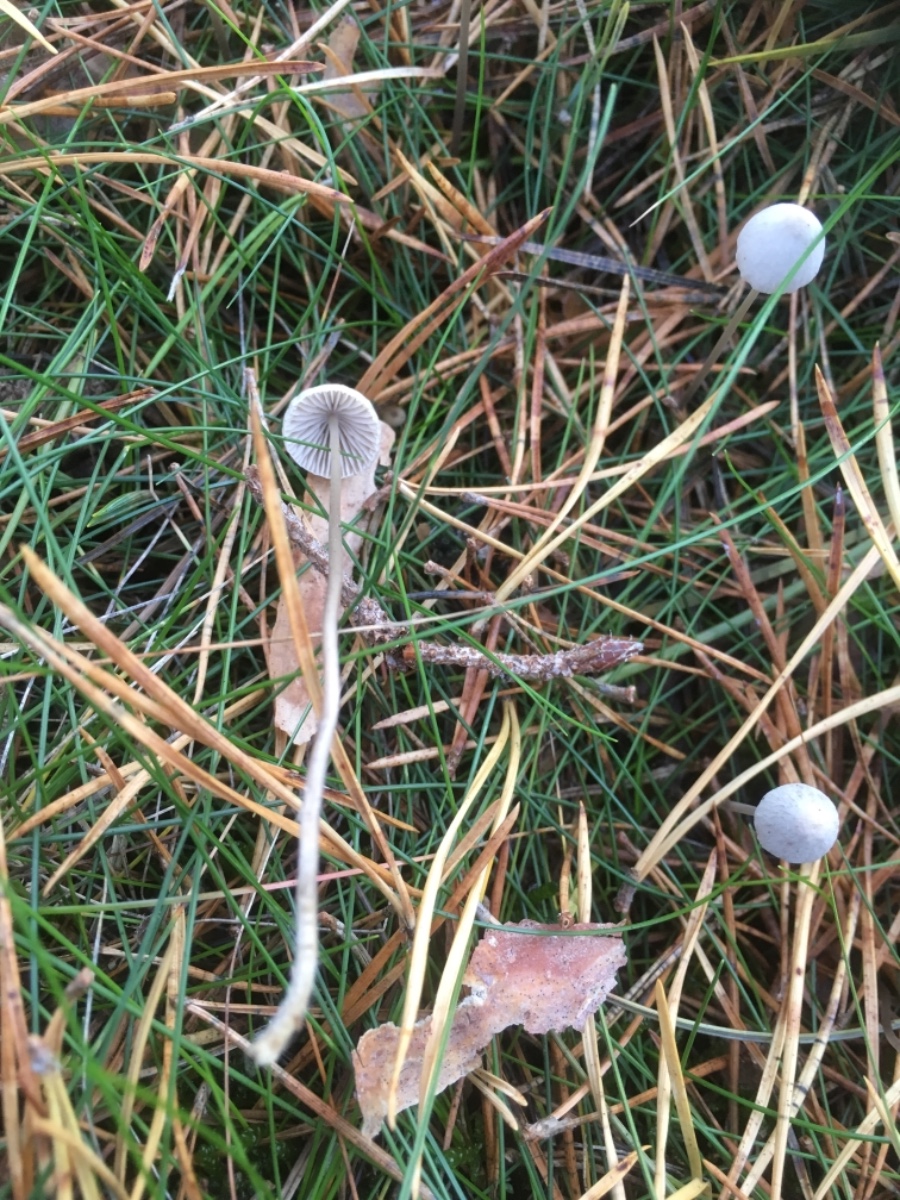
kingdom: Fungi
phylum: Basidiomycota
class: Agaricomycetes
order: Agaricales
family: Mycenaceae
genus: Mycena
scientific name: Mycena
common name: huesvamp
